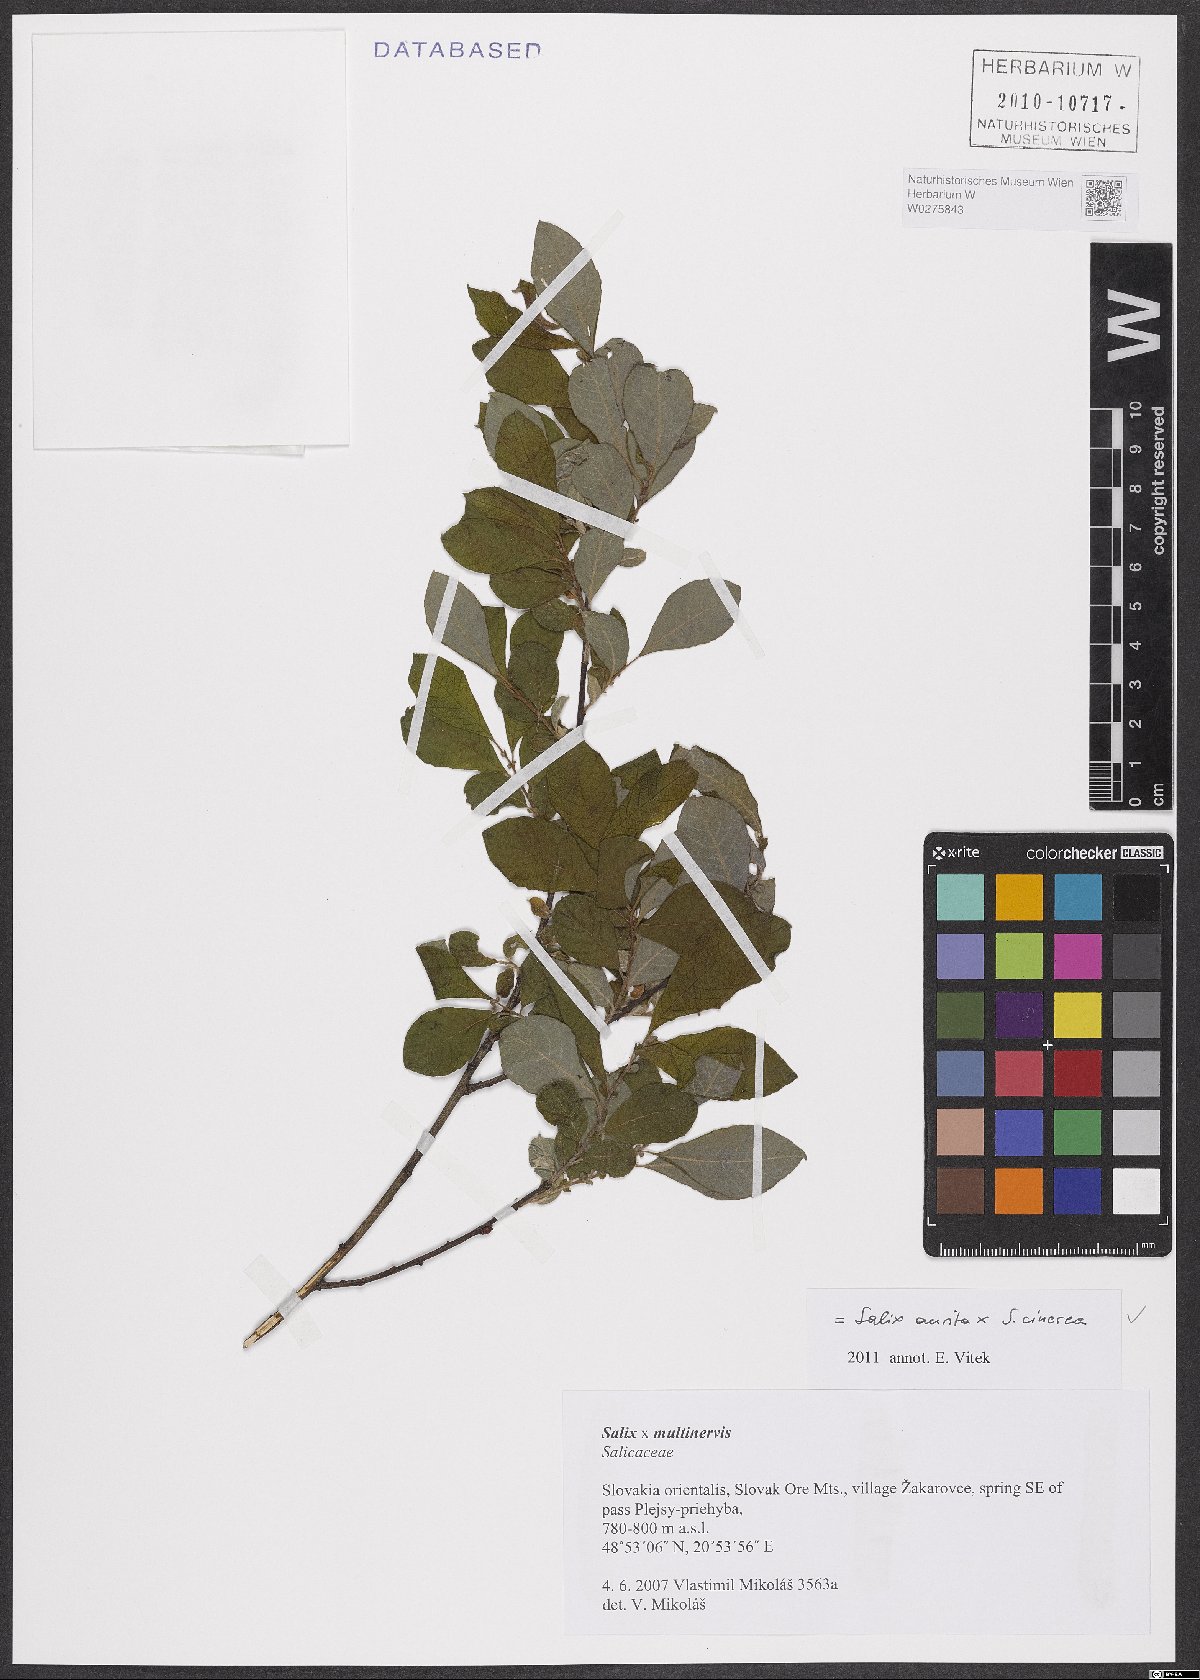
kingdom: Plantae
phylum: Tracheophyta
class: Magnoliopsida
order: Malpighiales
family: Salicaceae
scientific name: Salicaceae
